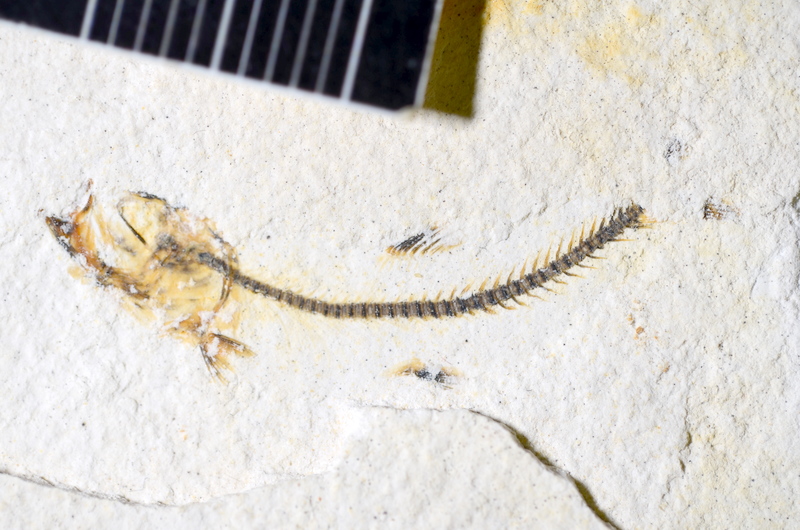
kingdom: Animalia
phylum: Chordata
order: Salmoniformes
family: Orthogonikleithridae
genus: Orthogonikleithrus
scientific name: Orthogonikleithrus hoelli
